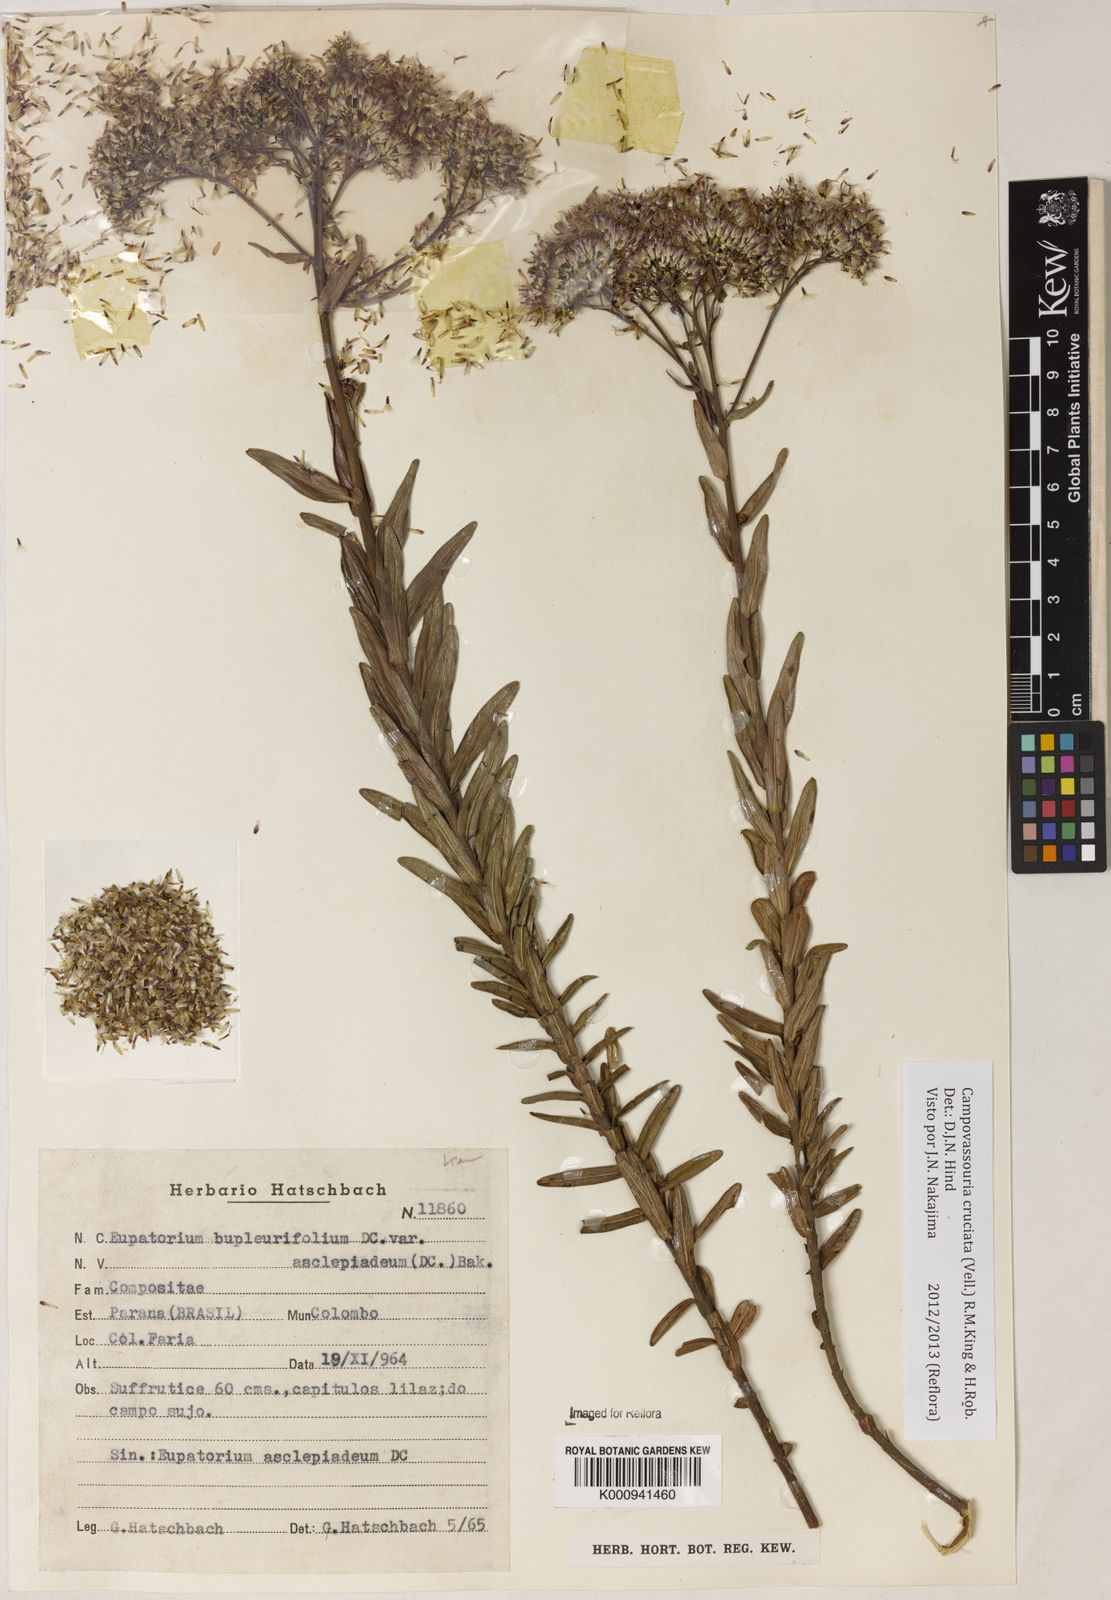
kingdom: Plantae
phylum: Tracheophyta
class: Magnoliopsida
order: Asterales
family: Asteraceae
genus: Campovassouria
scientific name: Campovassouria cruciata
